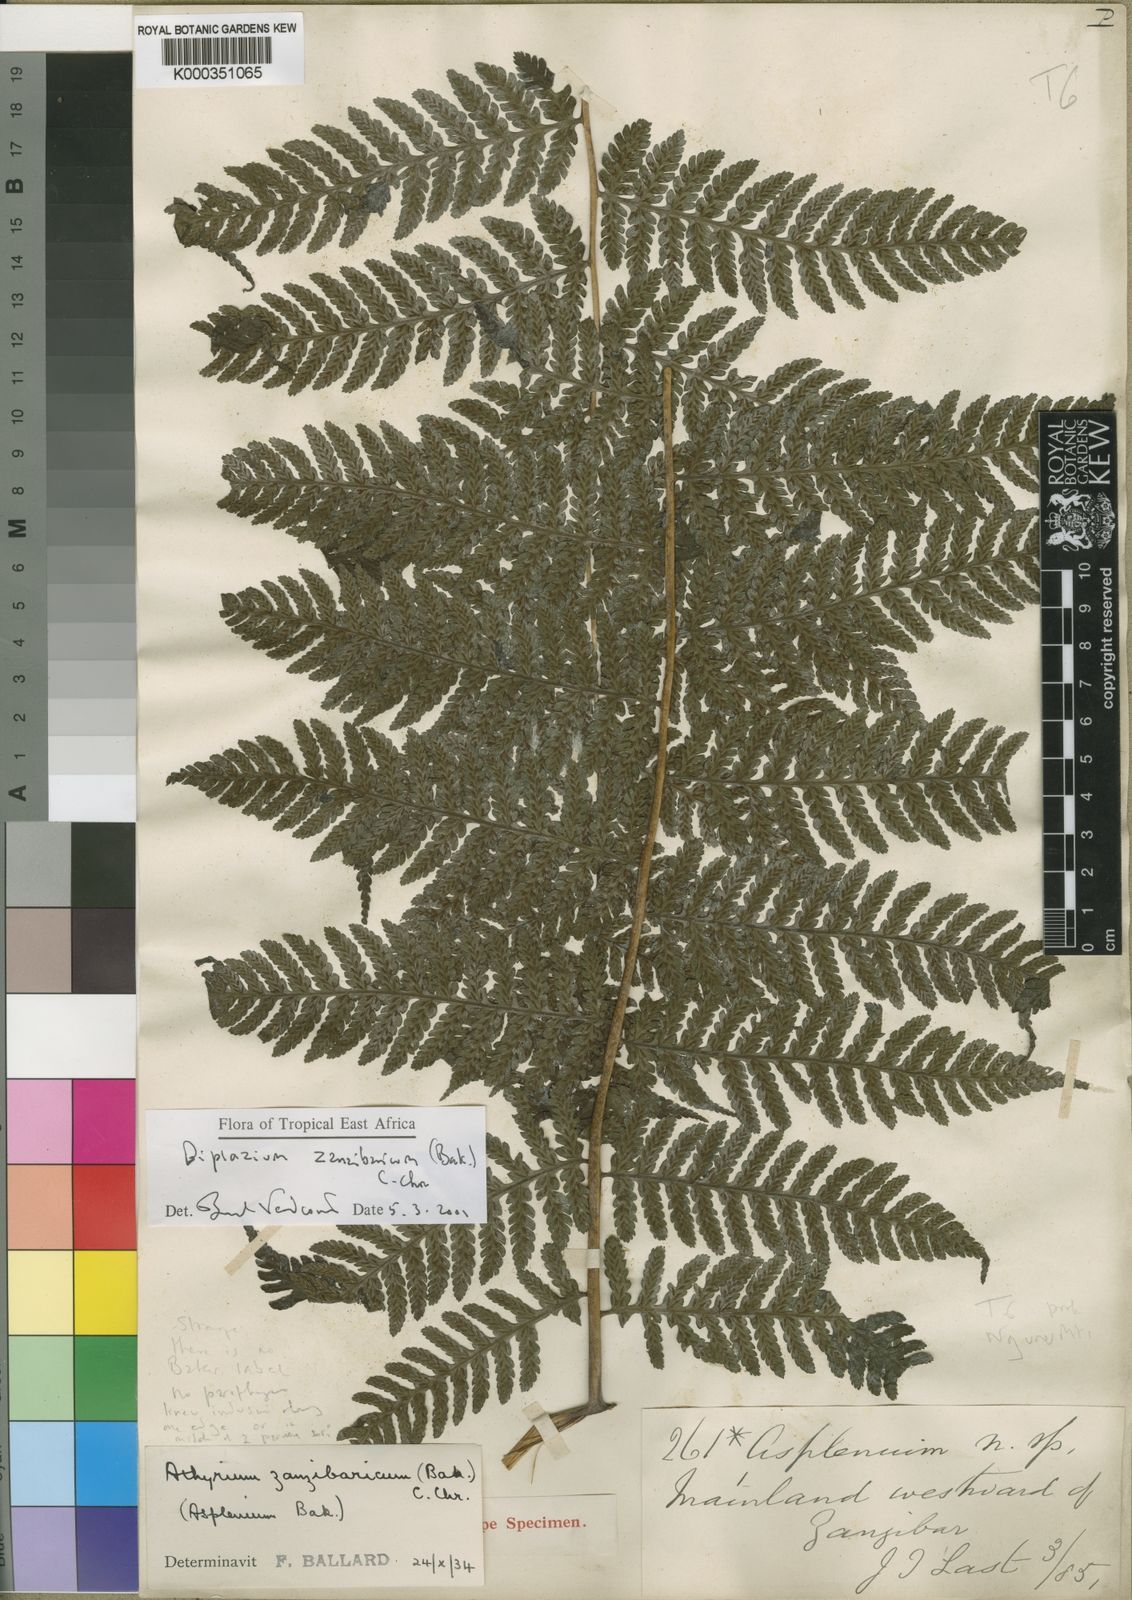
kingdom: Plantae
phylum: Tracheophyta
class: Polypodiopsida
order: Polypodiales
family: Athyriaceae
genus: Diplazium
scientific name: Diplazium zanzibaricum
